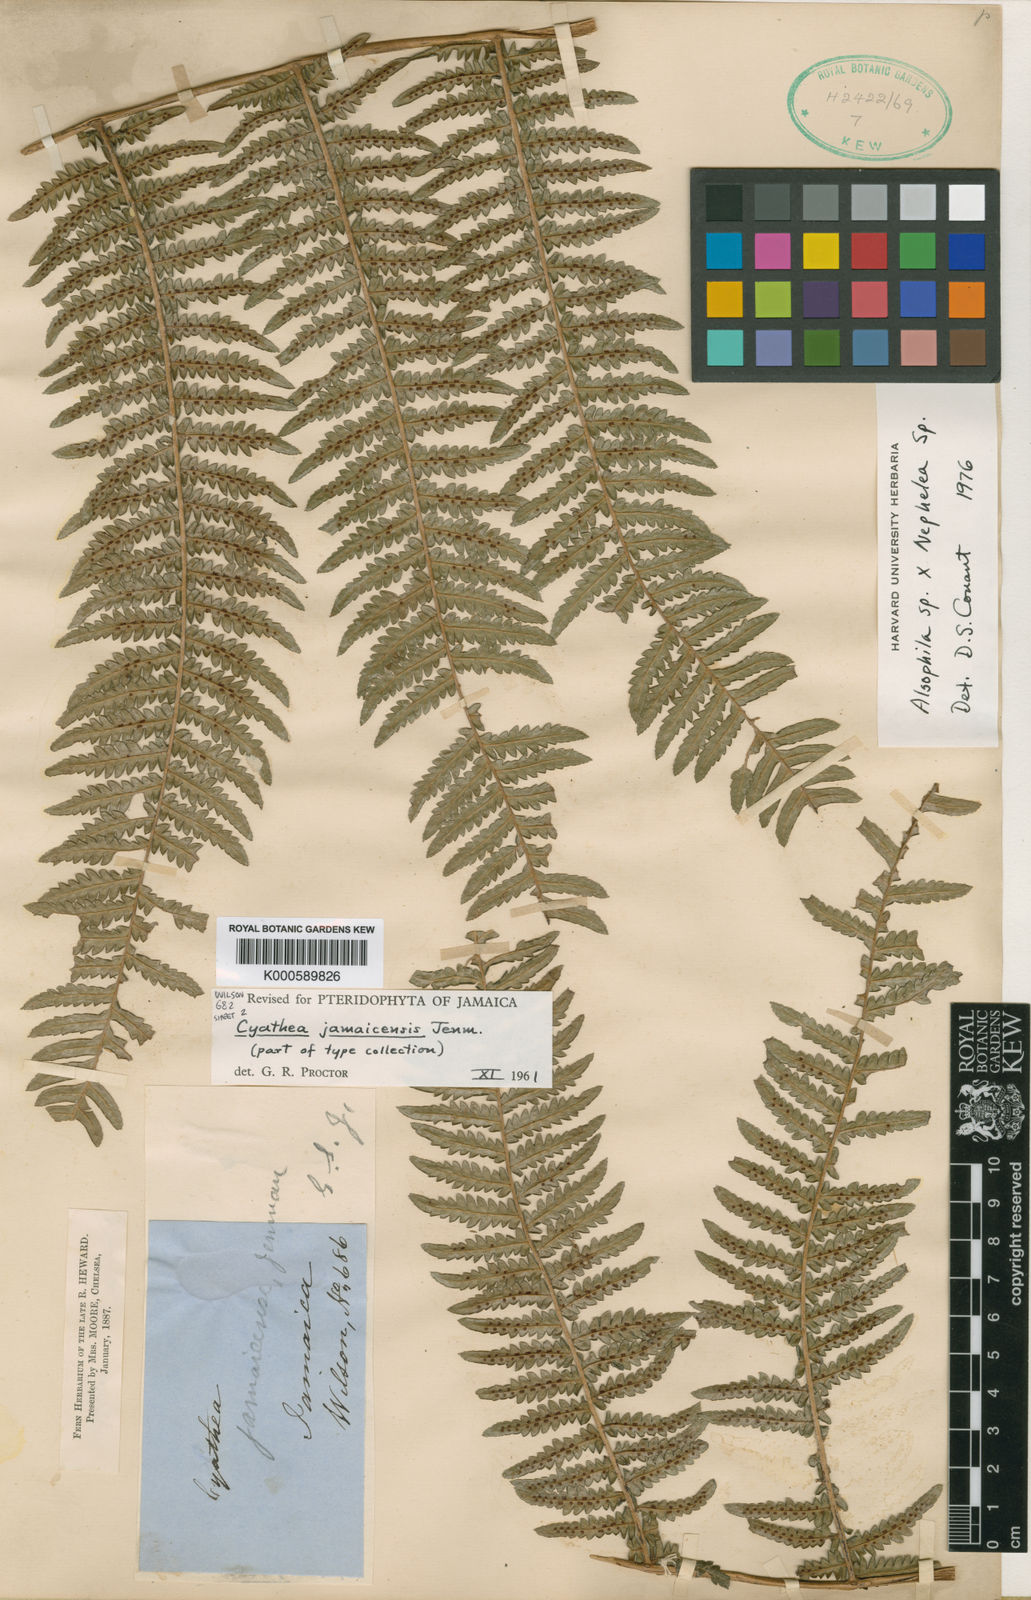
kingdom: Plantae
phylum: Tracheophyta
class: Polypodiopsida
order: Cyatheales
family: Cyatheaceae
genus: Cyathea
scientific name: Cyathea jamaicensis
